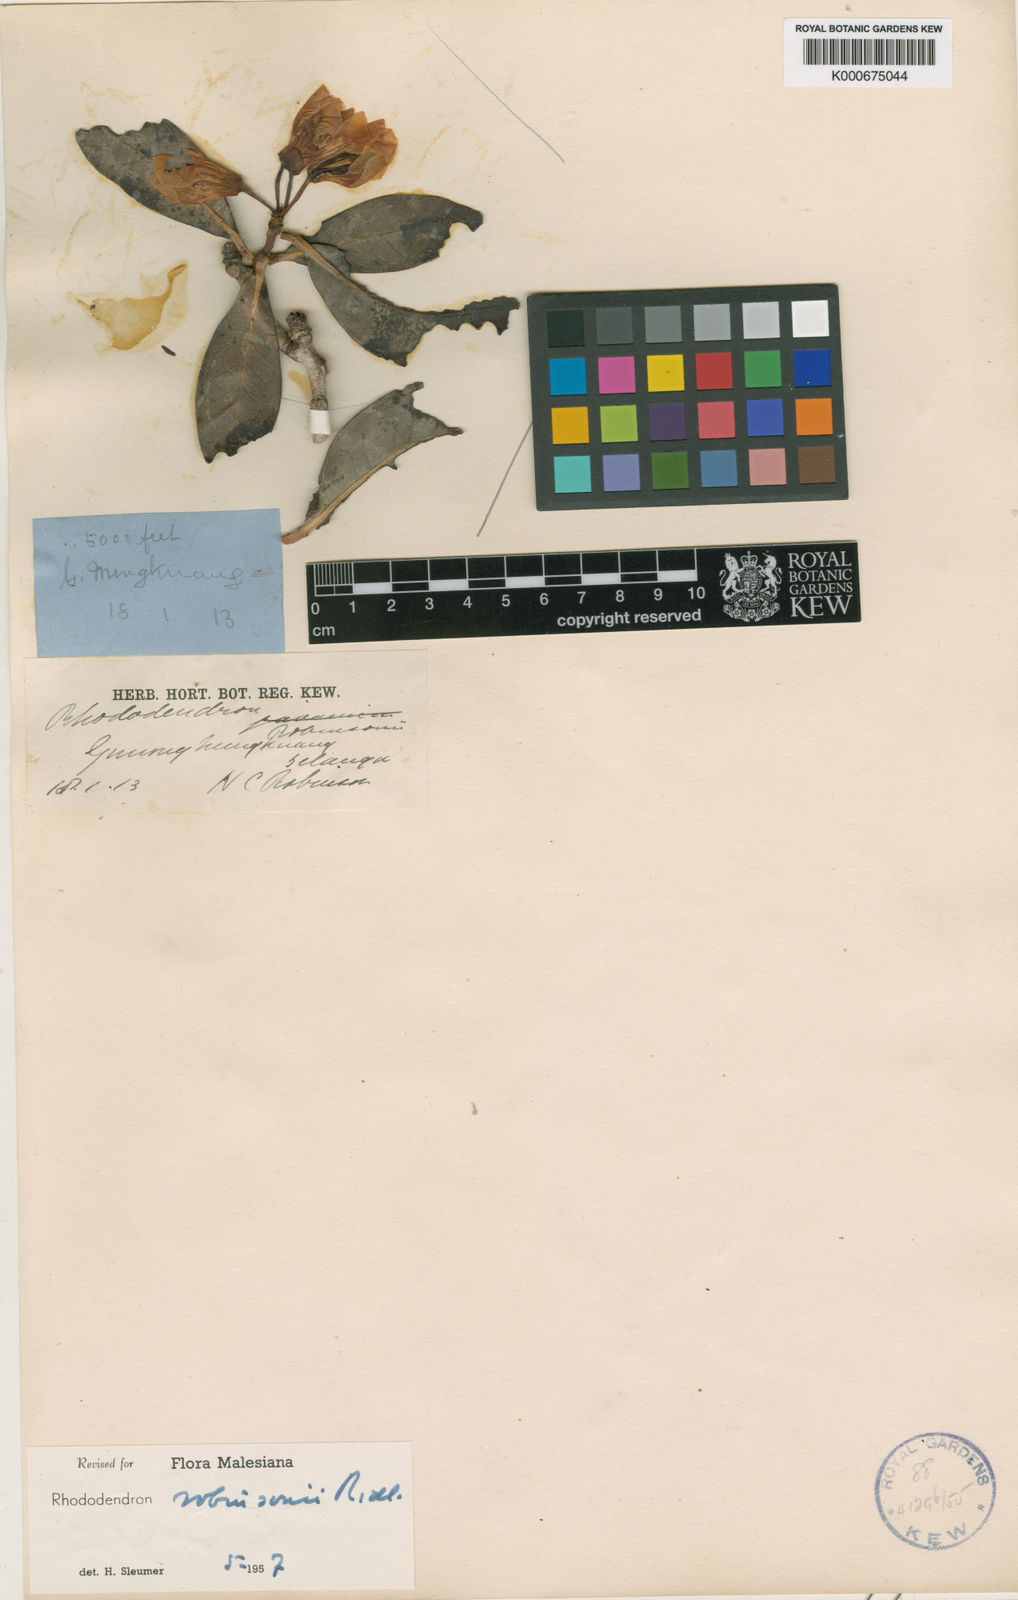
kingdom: Plantae
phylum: Tracheophyta
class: Magnoliopsida
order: Ericales
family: Ericaceae
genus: Rhododendron
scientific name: Rhododendron robinsonii
